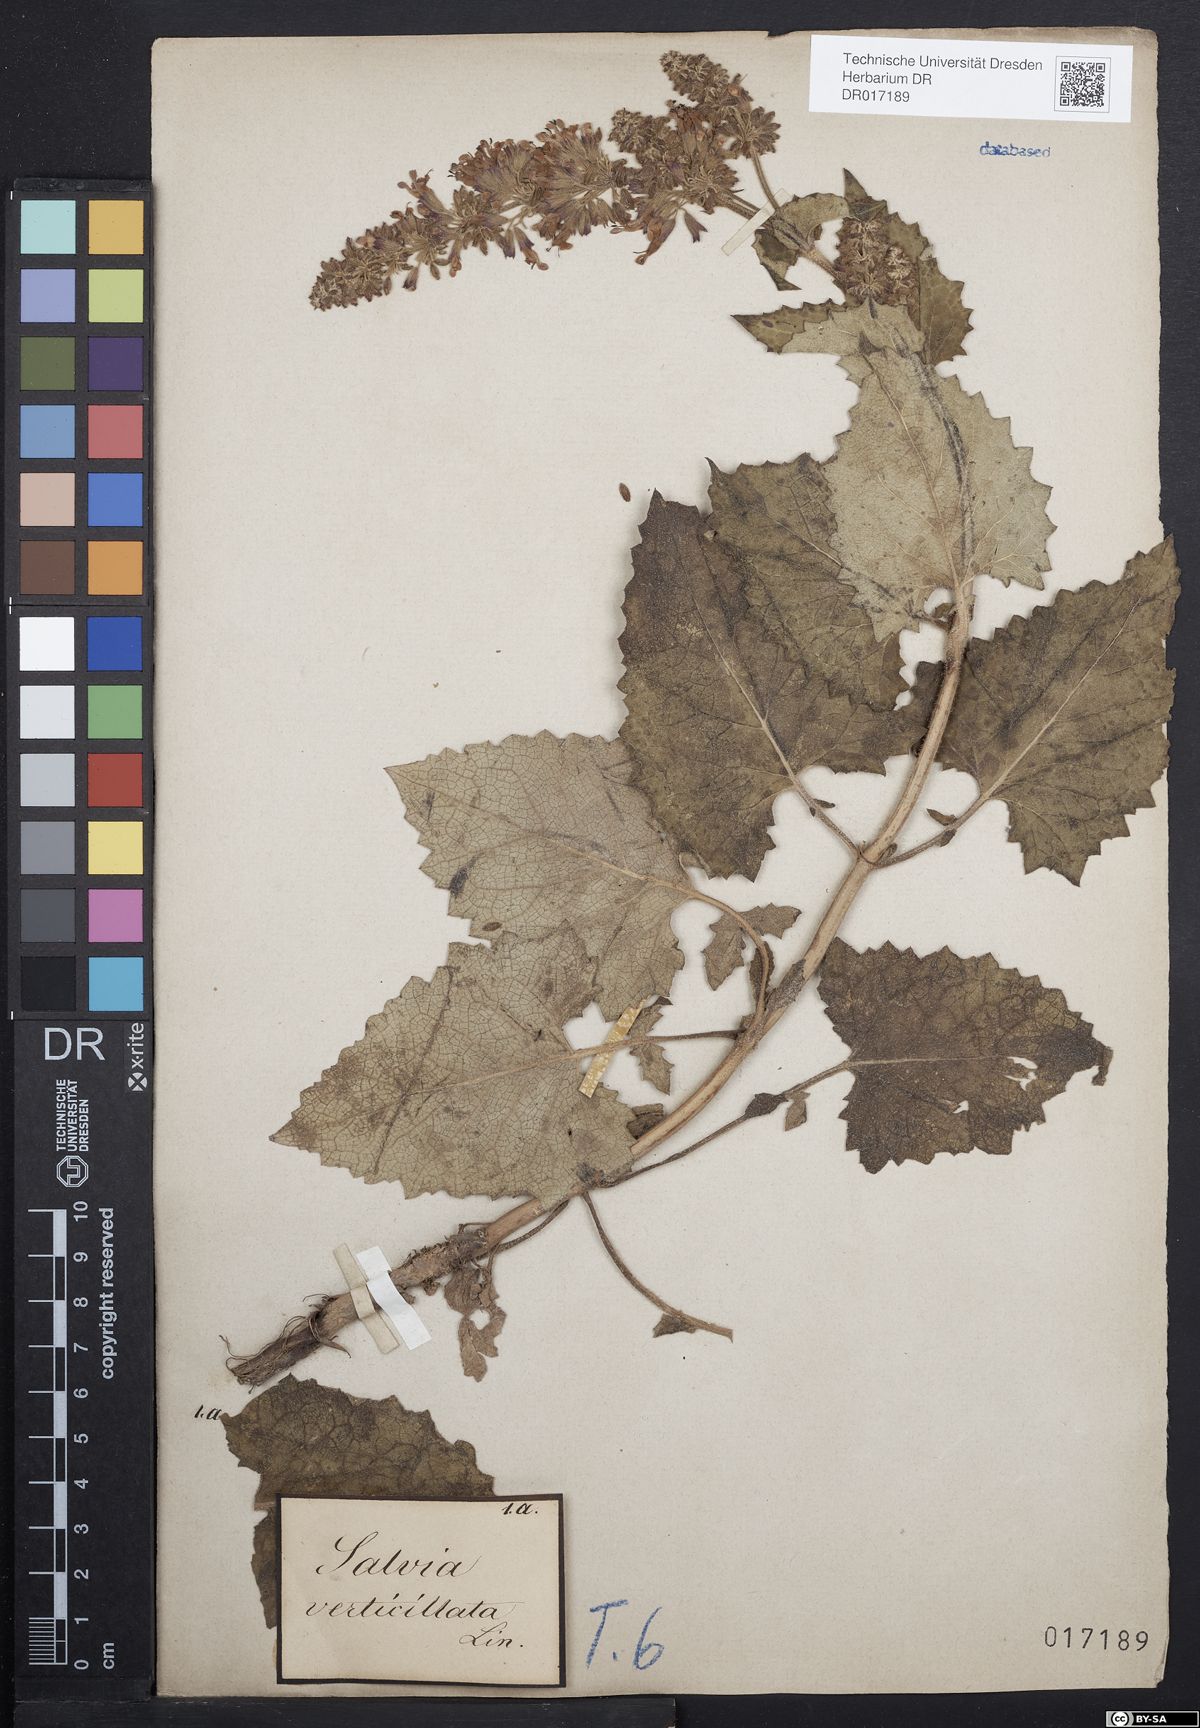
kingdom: Plantae
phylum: Tracheophyta
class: Magnoliopsida
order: Lamiales
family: Lamiaceae
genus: Salvia
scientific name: Salvia verticillata
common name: Whorled clary
